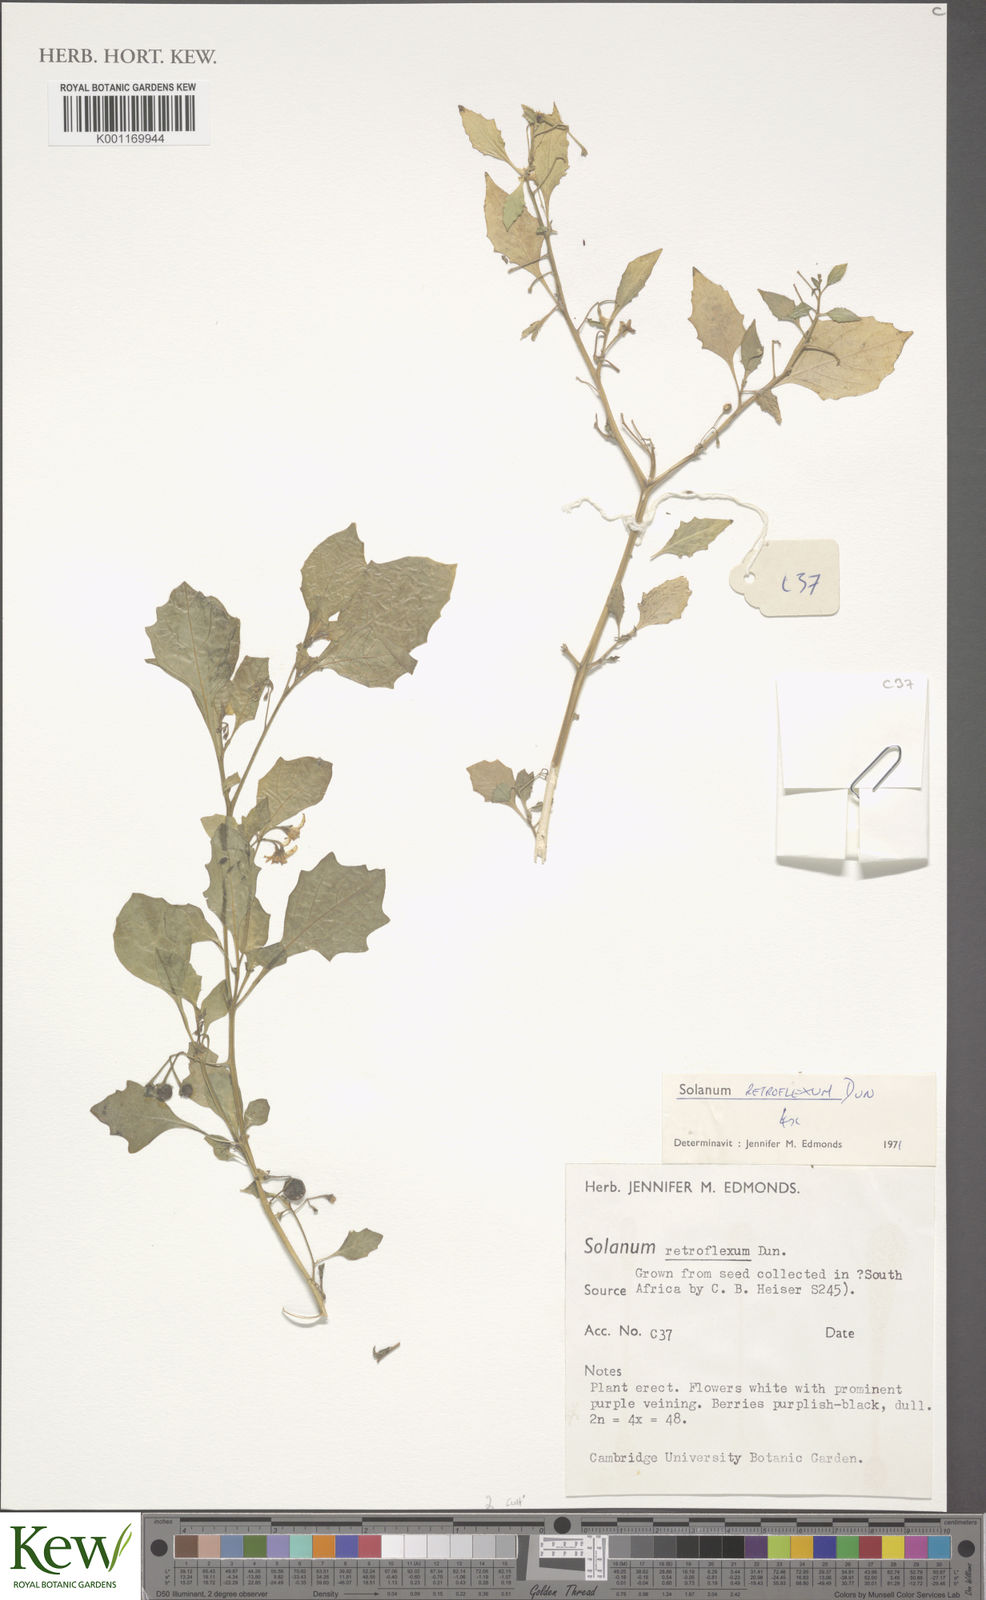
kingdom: Plantae
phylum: Tracheophyta
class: Magnoliopsida
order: Solanales
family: Solanaceae
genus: Solanum
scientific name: Solanum retroflexum
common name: Wonderberry
